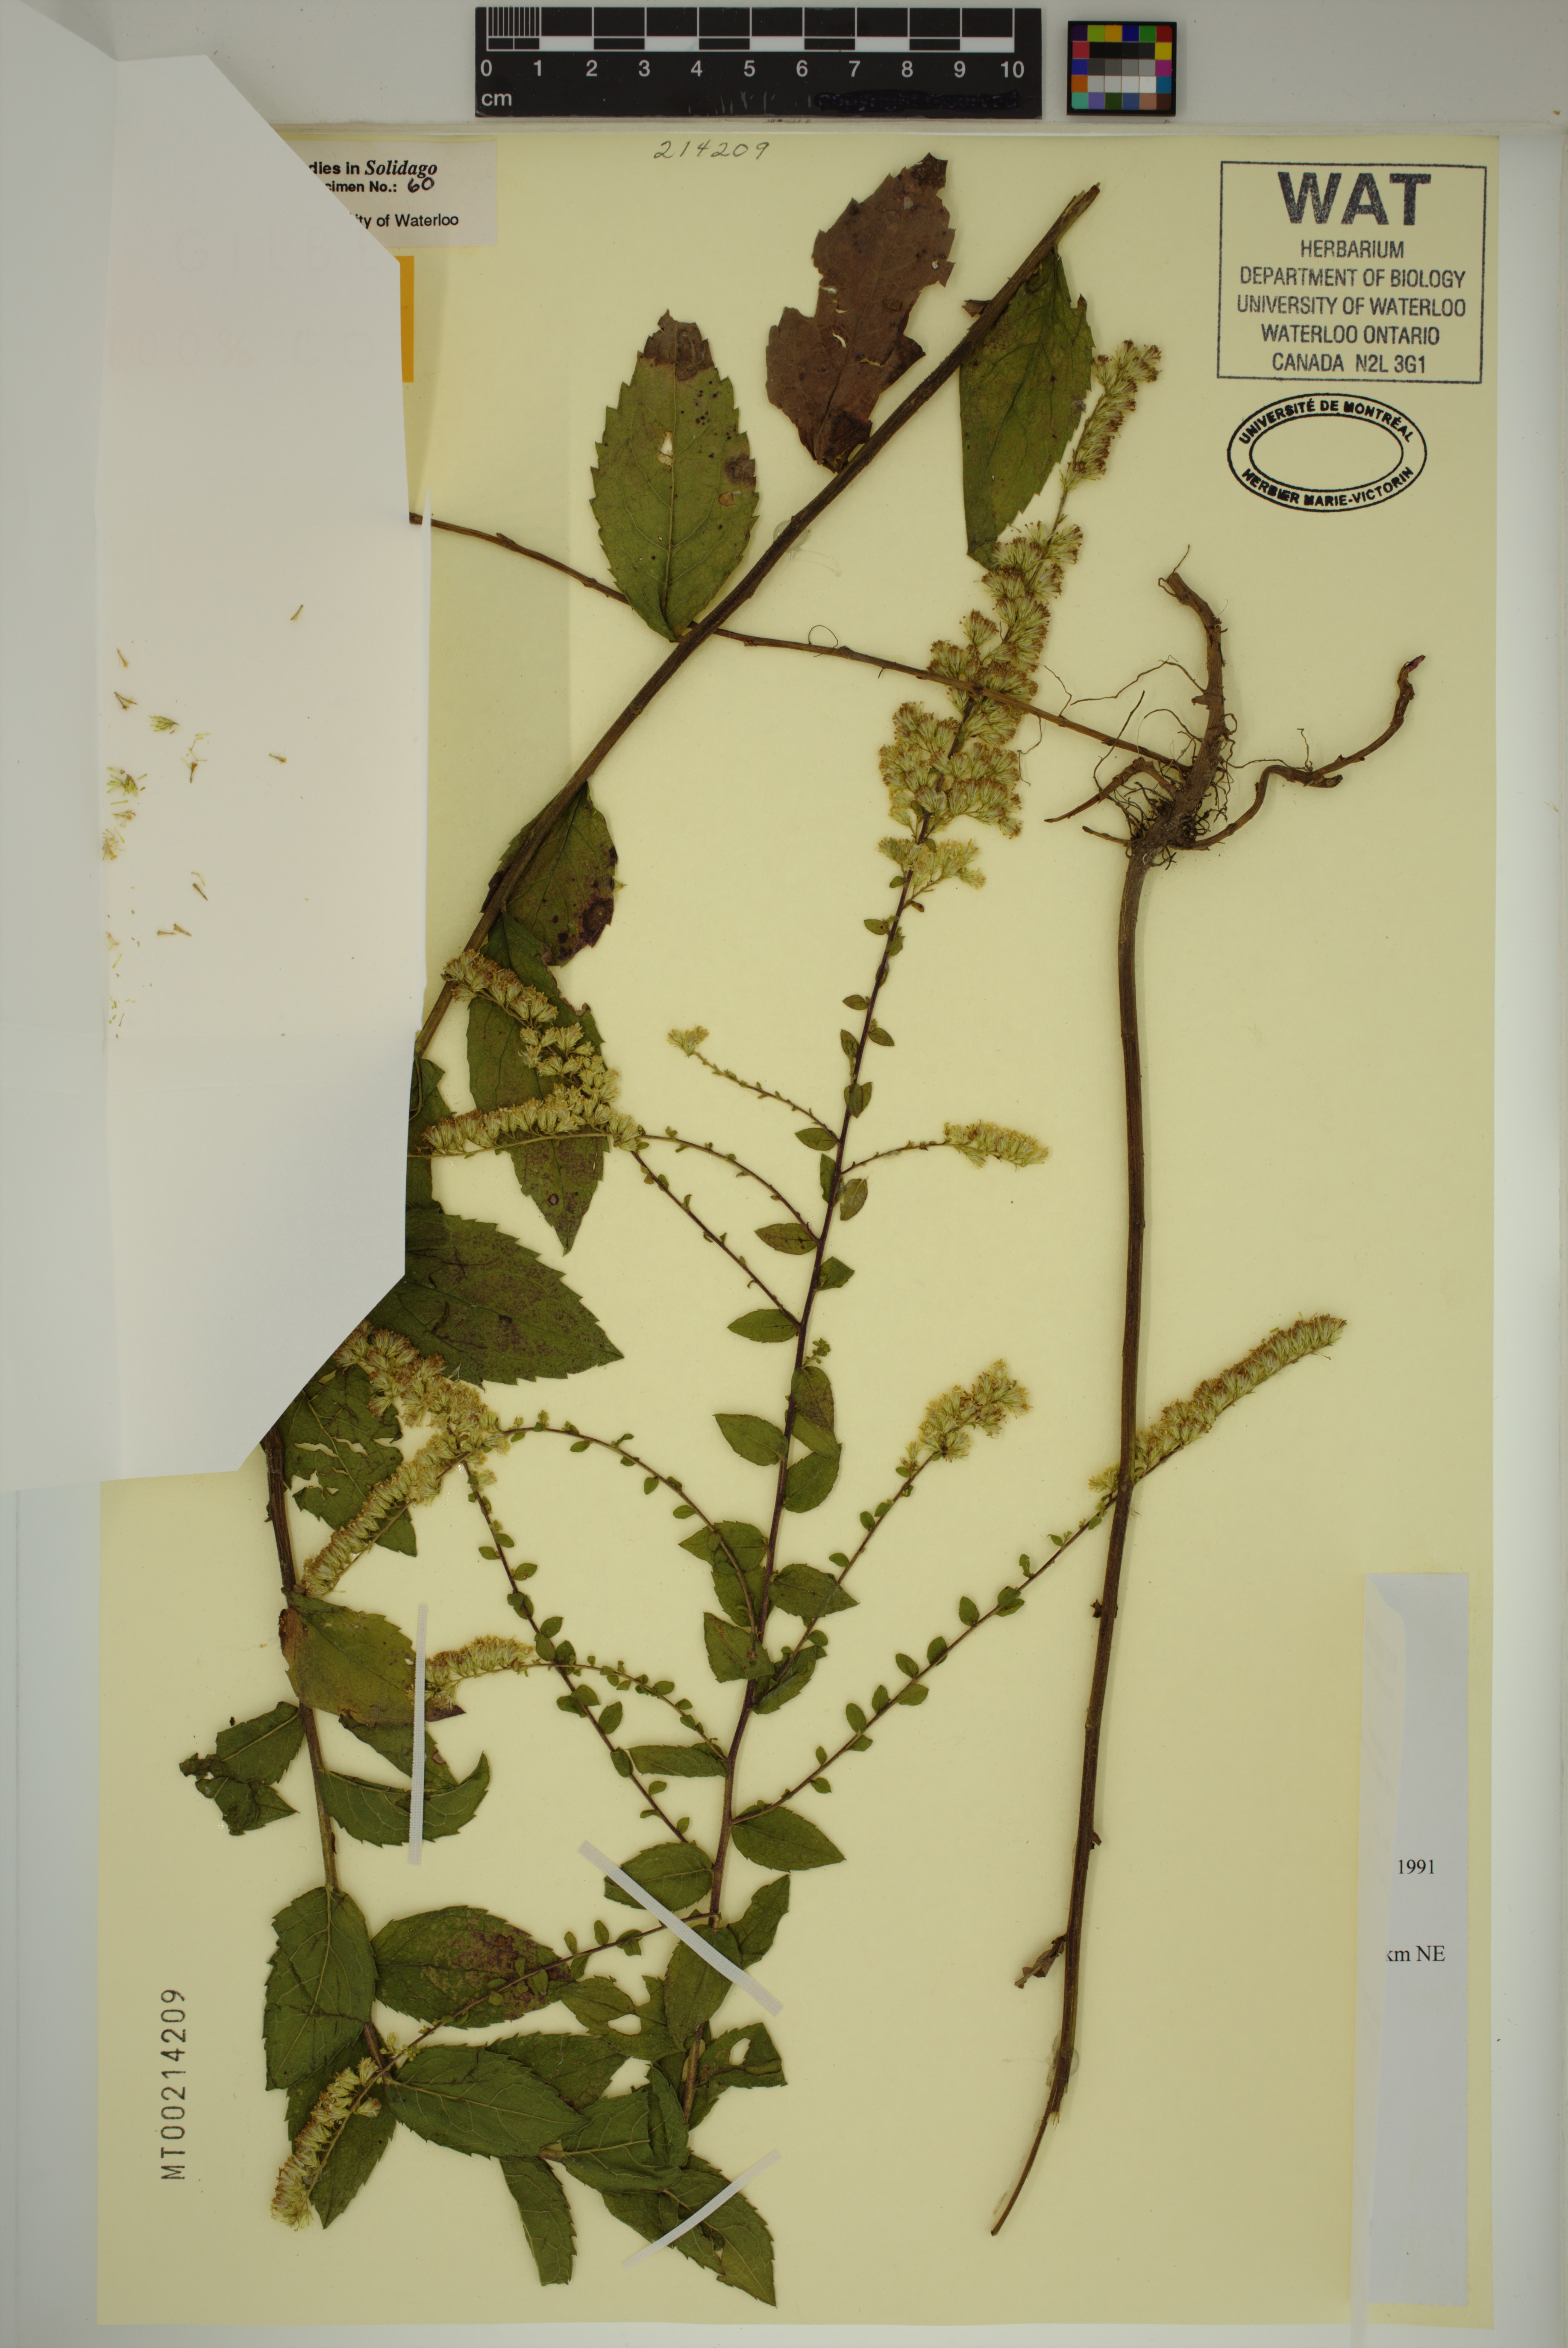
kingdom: Plantae
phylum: Tracheophyta
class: Magnoliopsida
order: Asterales
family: Asteraceae
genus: Solidago
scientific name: Solidago rugosa
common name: Rough-stemmed goldenrod
